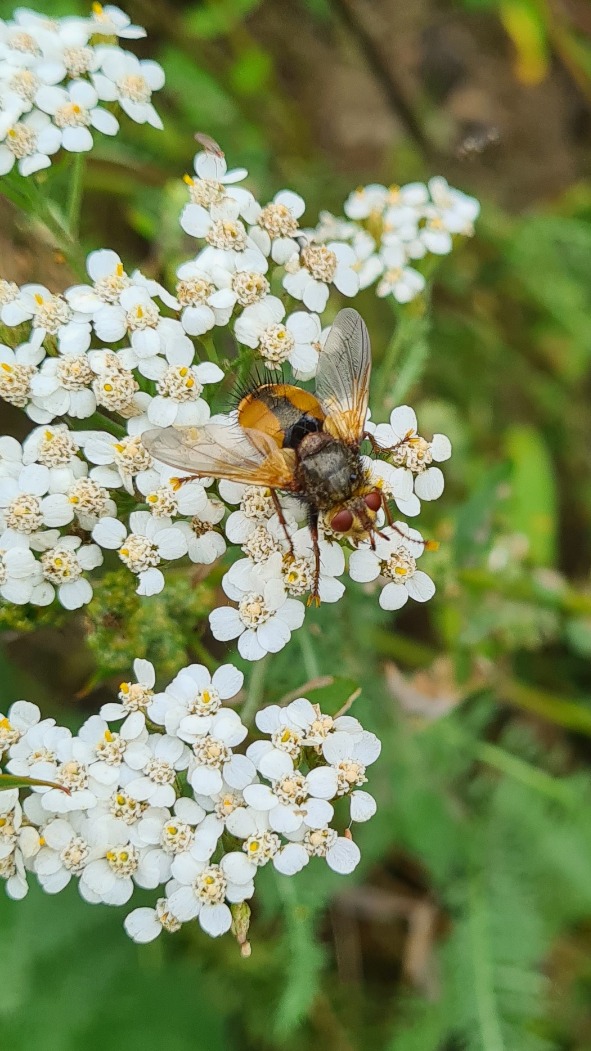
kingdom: Animalia
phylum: Arthropoda
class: Insecta
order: Diptera
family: Tachinidae
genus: Tachina
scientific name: Tachina fera
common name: Mellemfluen oskar
